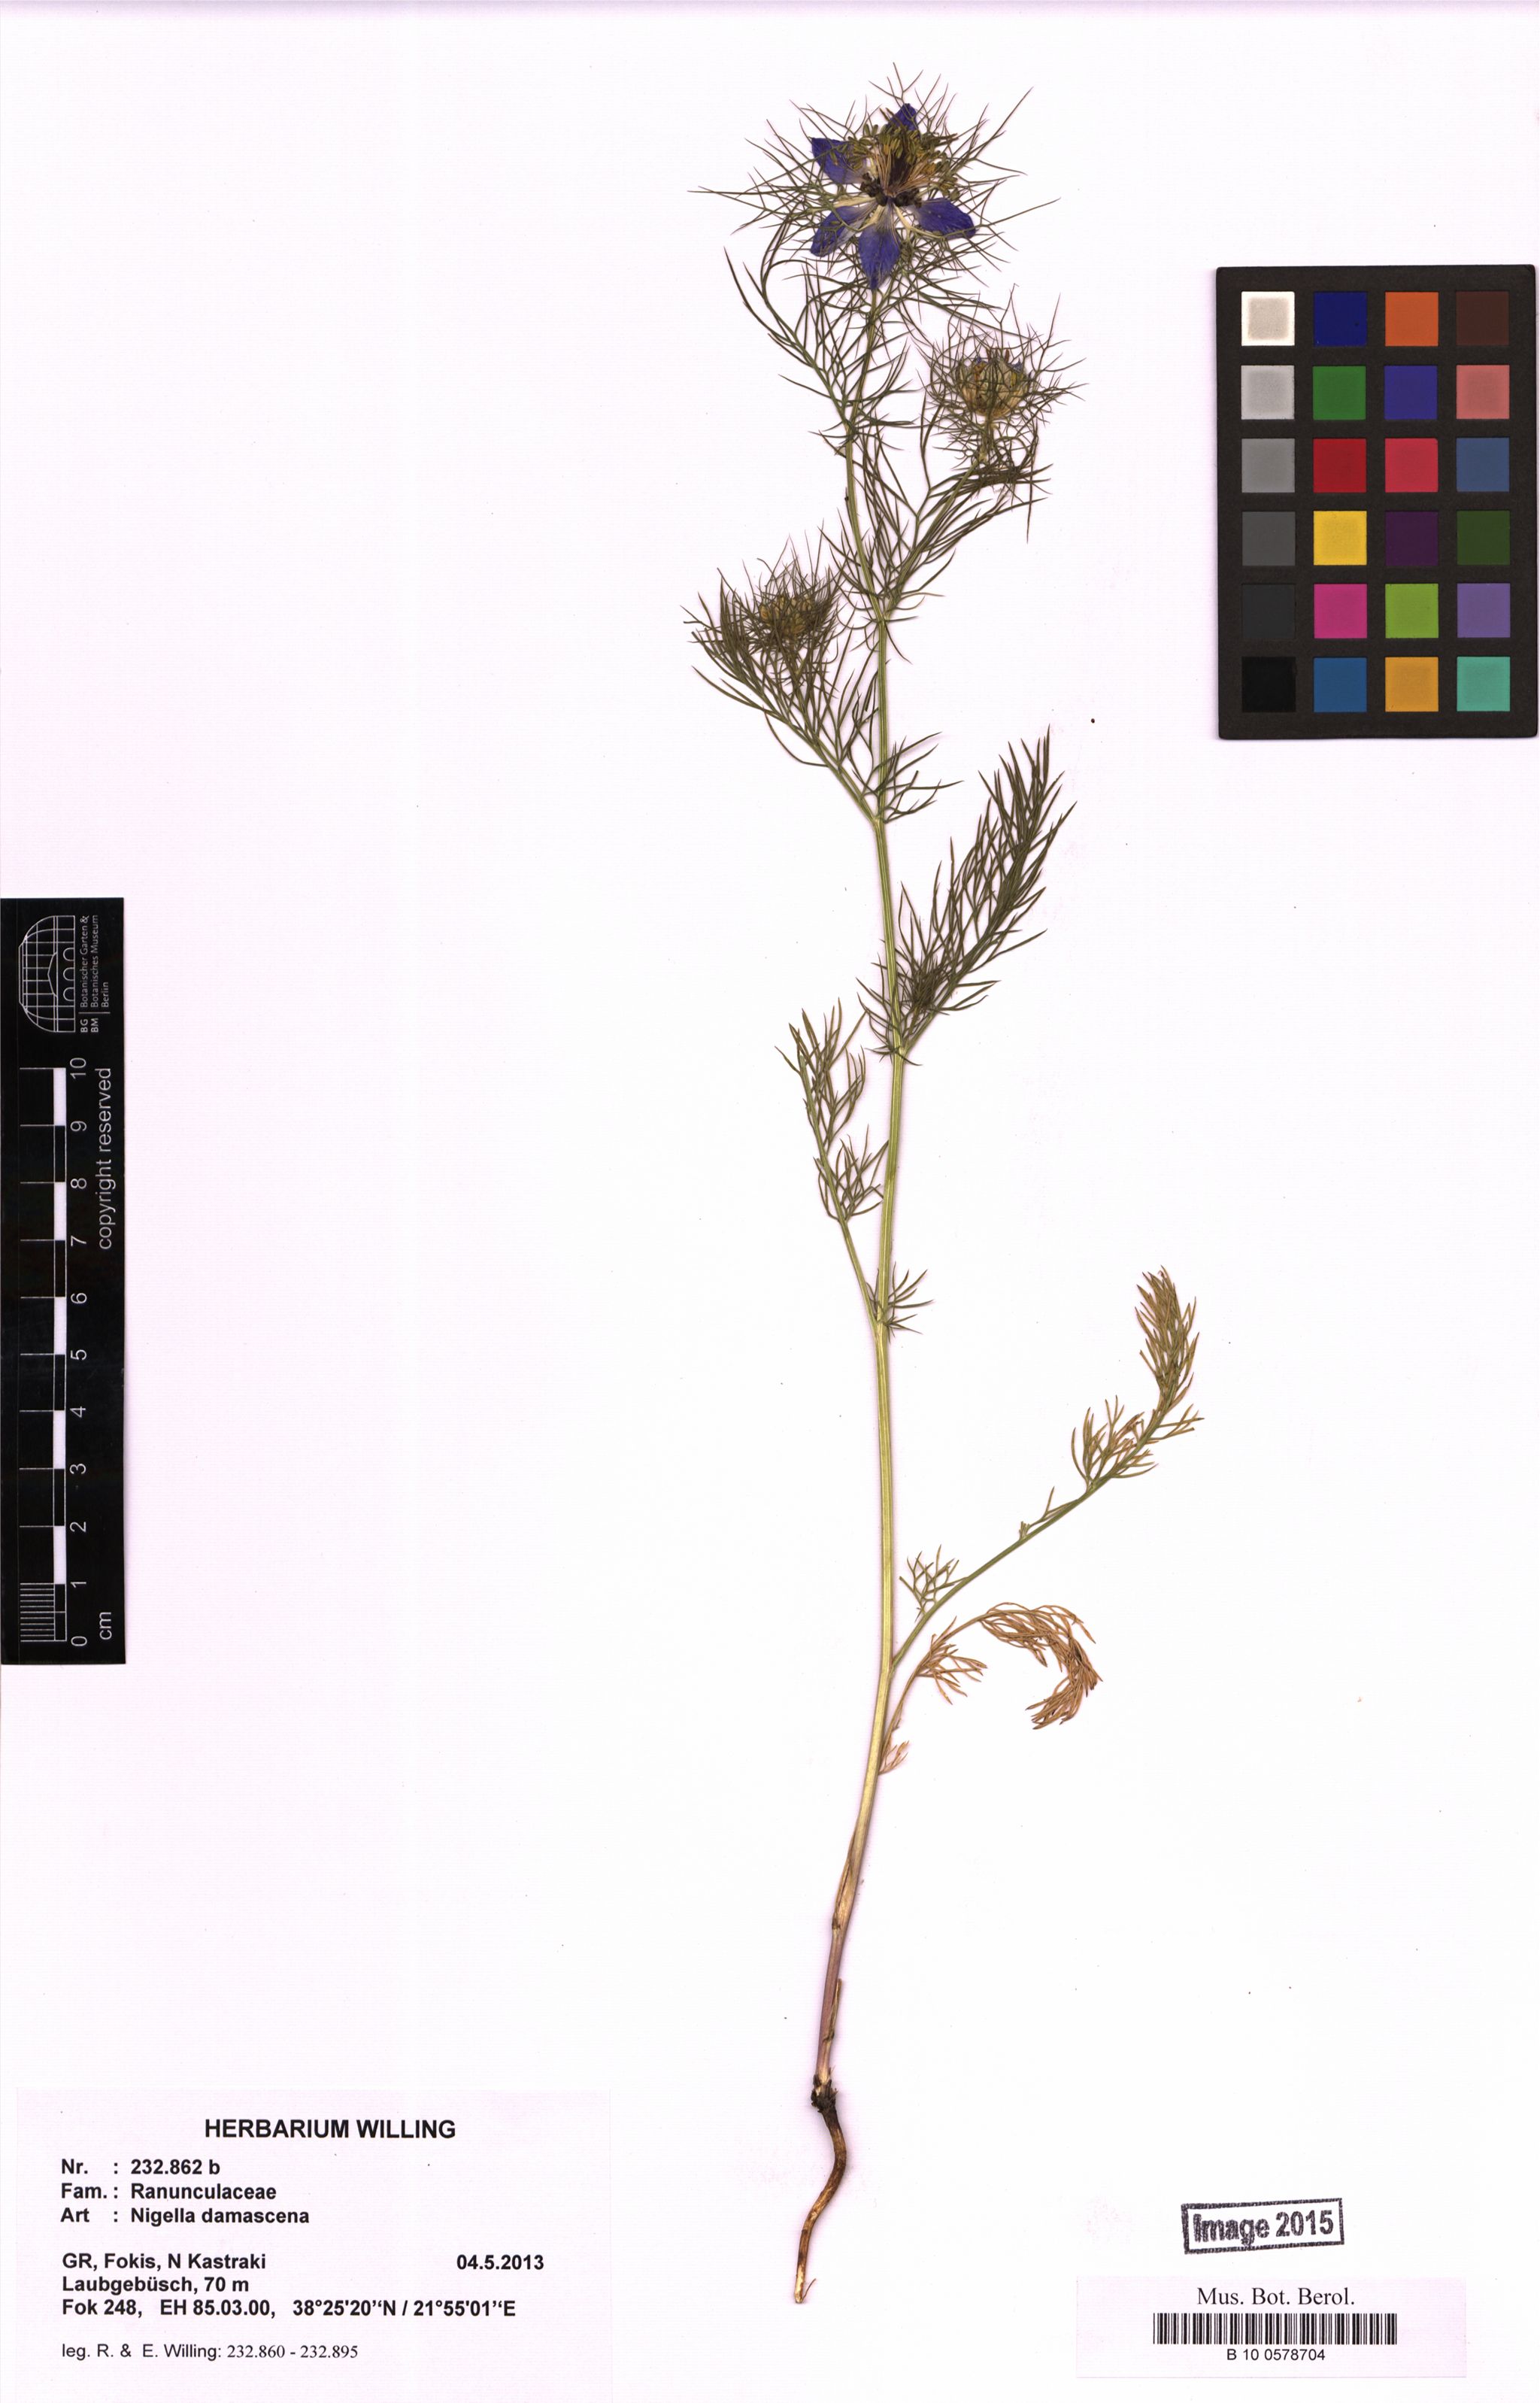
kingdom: Plantae
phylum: Tracheophyta
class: Magnoliopsida
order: Ranunculales
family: Ranunculaceae
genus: Nigella
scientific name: Nigella damascena
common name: Love-in-a-mist
